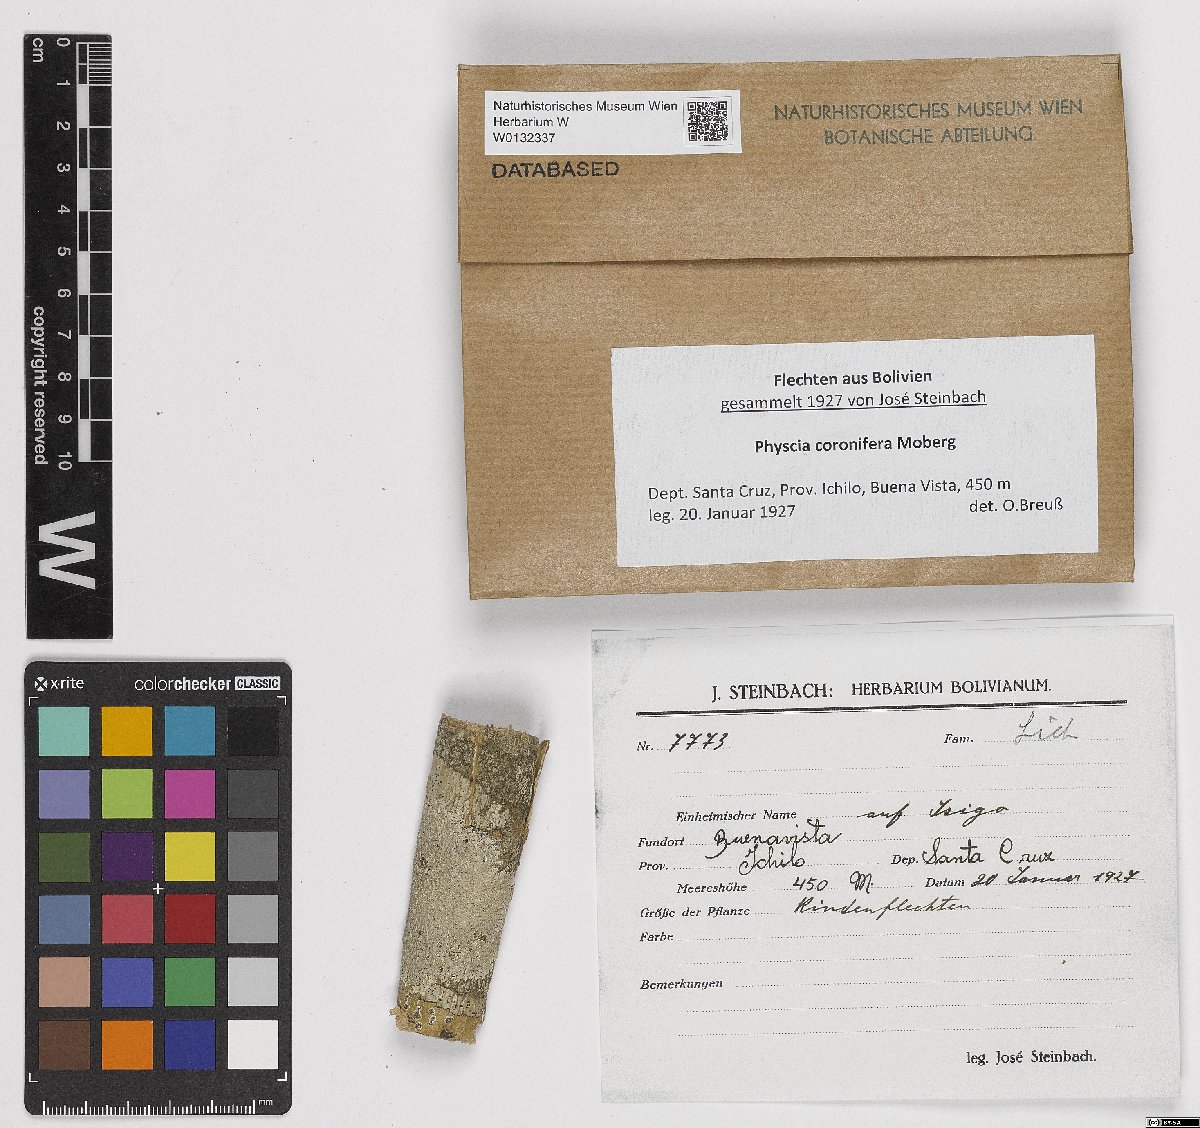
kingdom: Fungi
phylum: Ascomycota
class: Lecanoromycetes
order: Caliciales
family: Physciaceae
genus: Physcia
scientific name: Physcia coronifera
